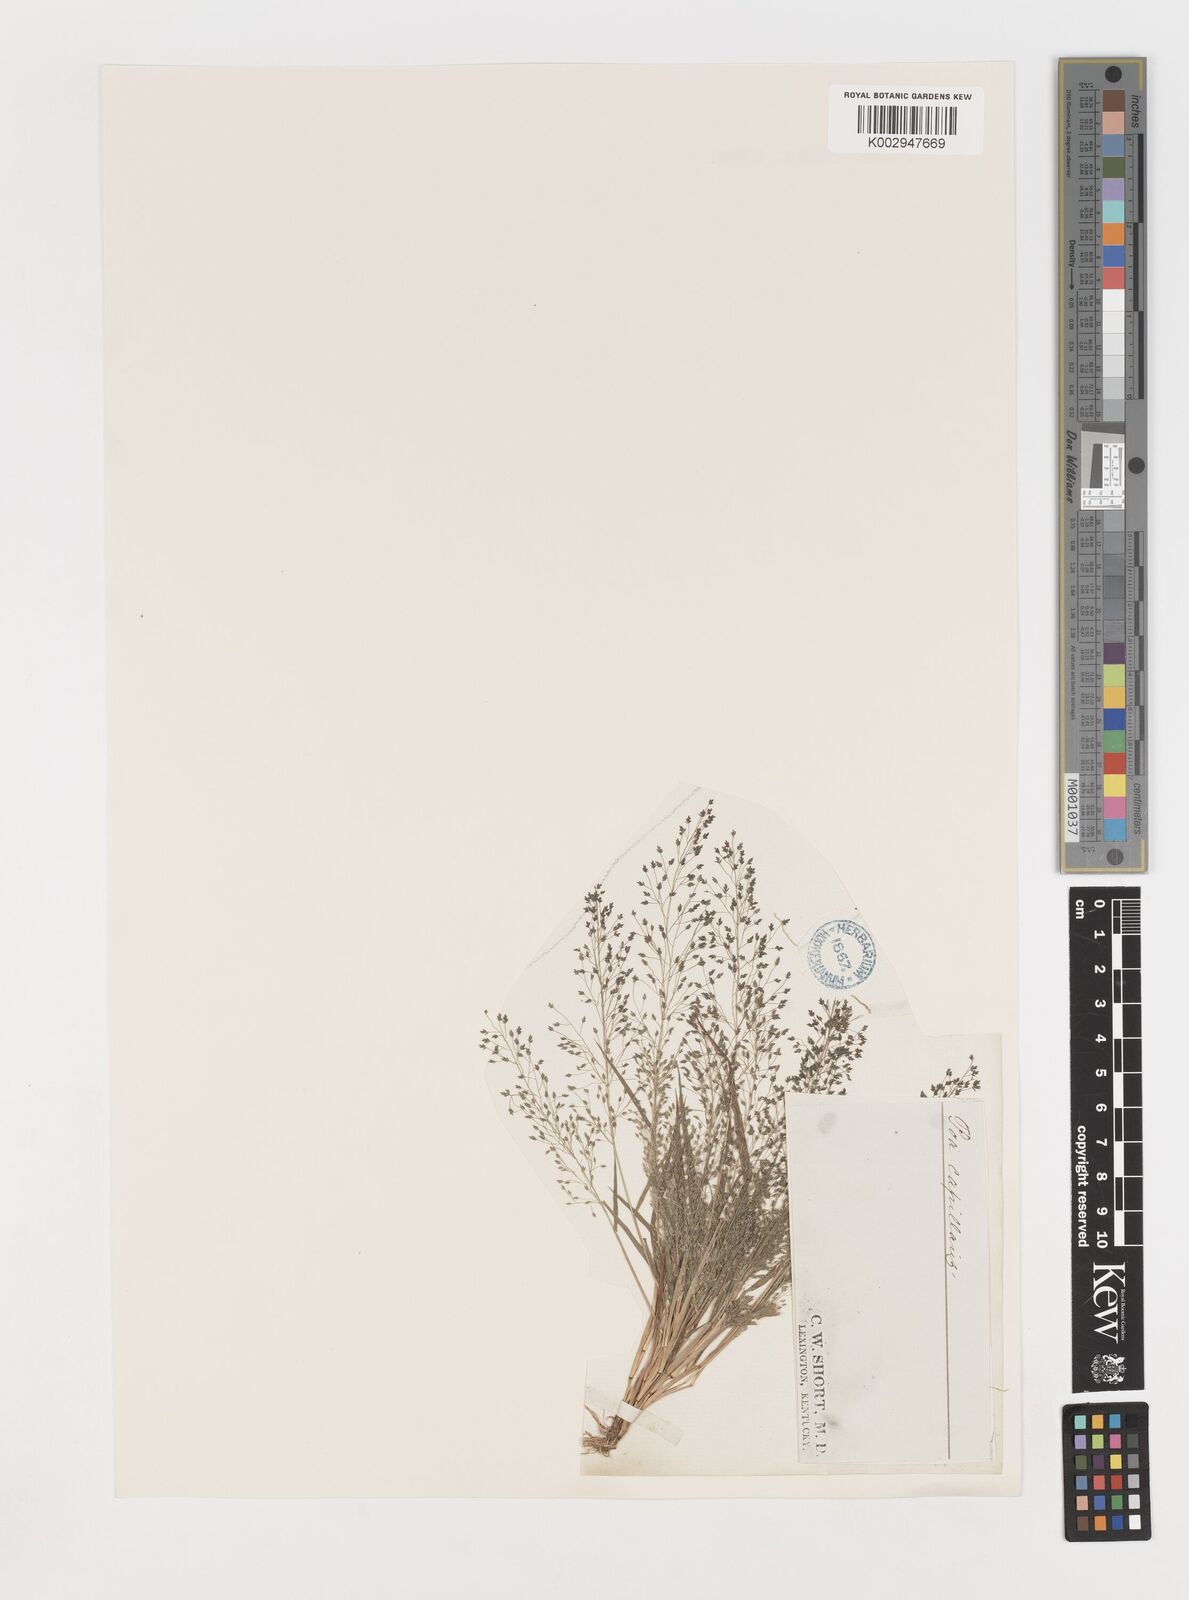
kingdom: Plantae
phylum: Tracheophyta
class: Liliopsida
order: Poales
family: Poaceae
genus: Eragrostis
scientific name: Eragrostis frankii
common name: Frank's lovegrass
